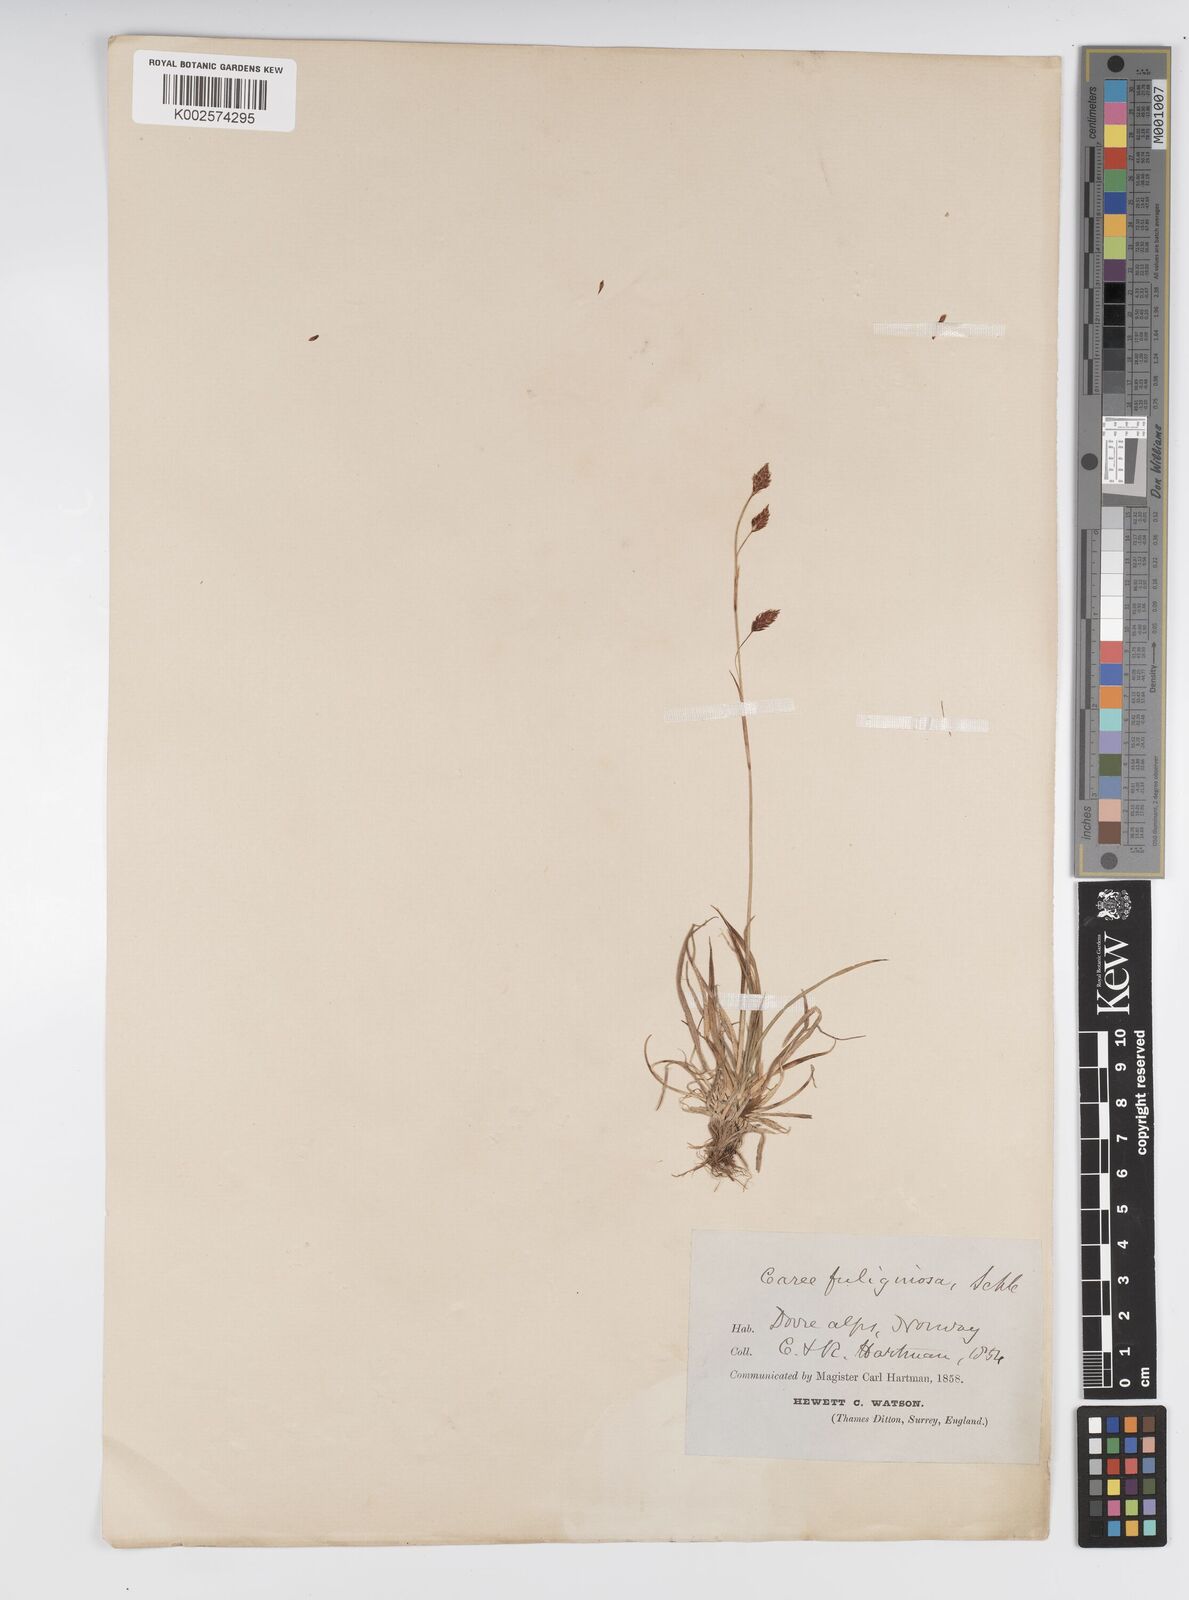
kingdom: Plantae
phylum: Tracheophyta
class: Liliopsida
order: Poales
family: Cyperaceae
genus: Carex
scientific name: Carex fuliginosa
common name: Few-flowered sedge
